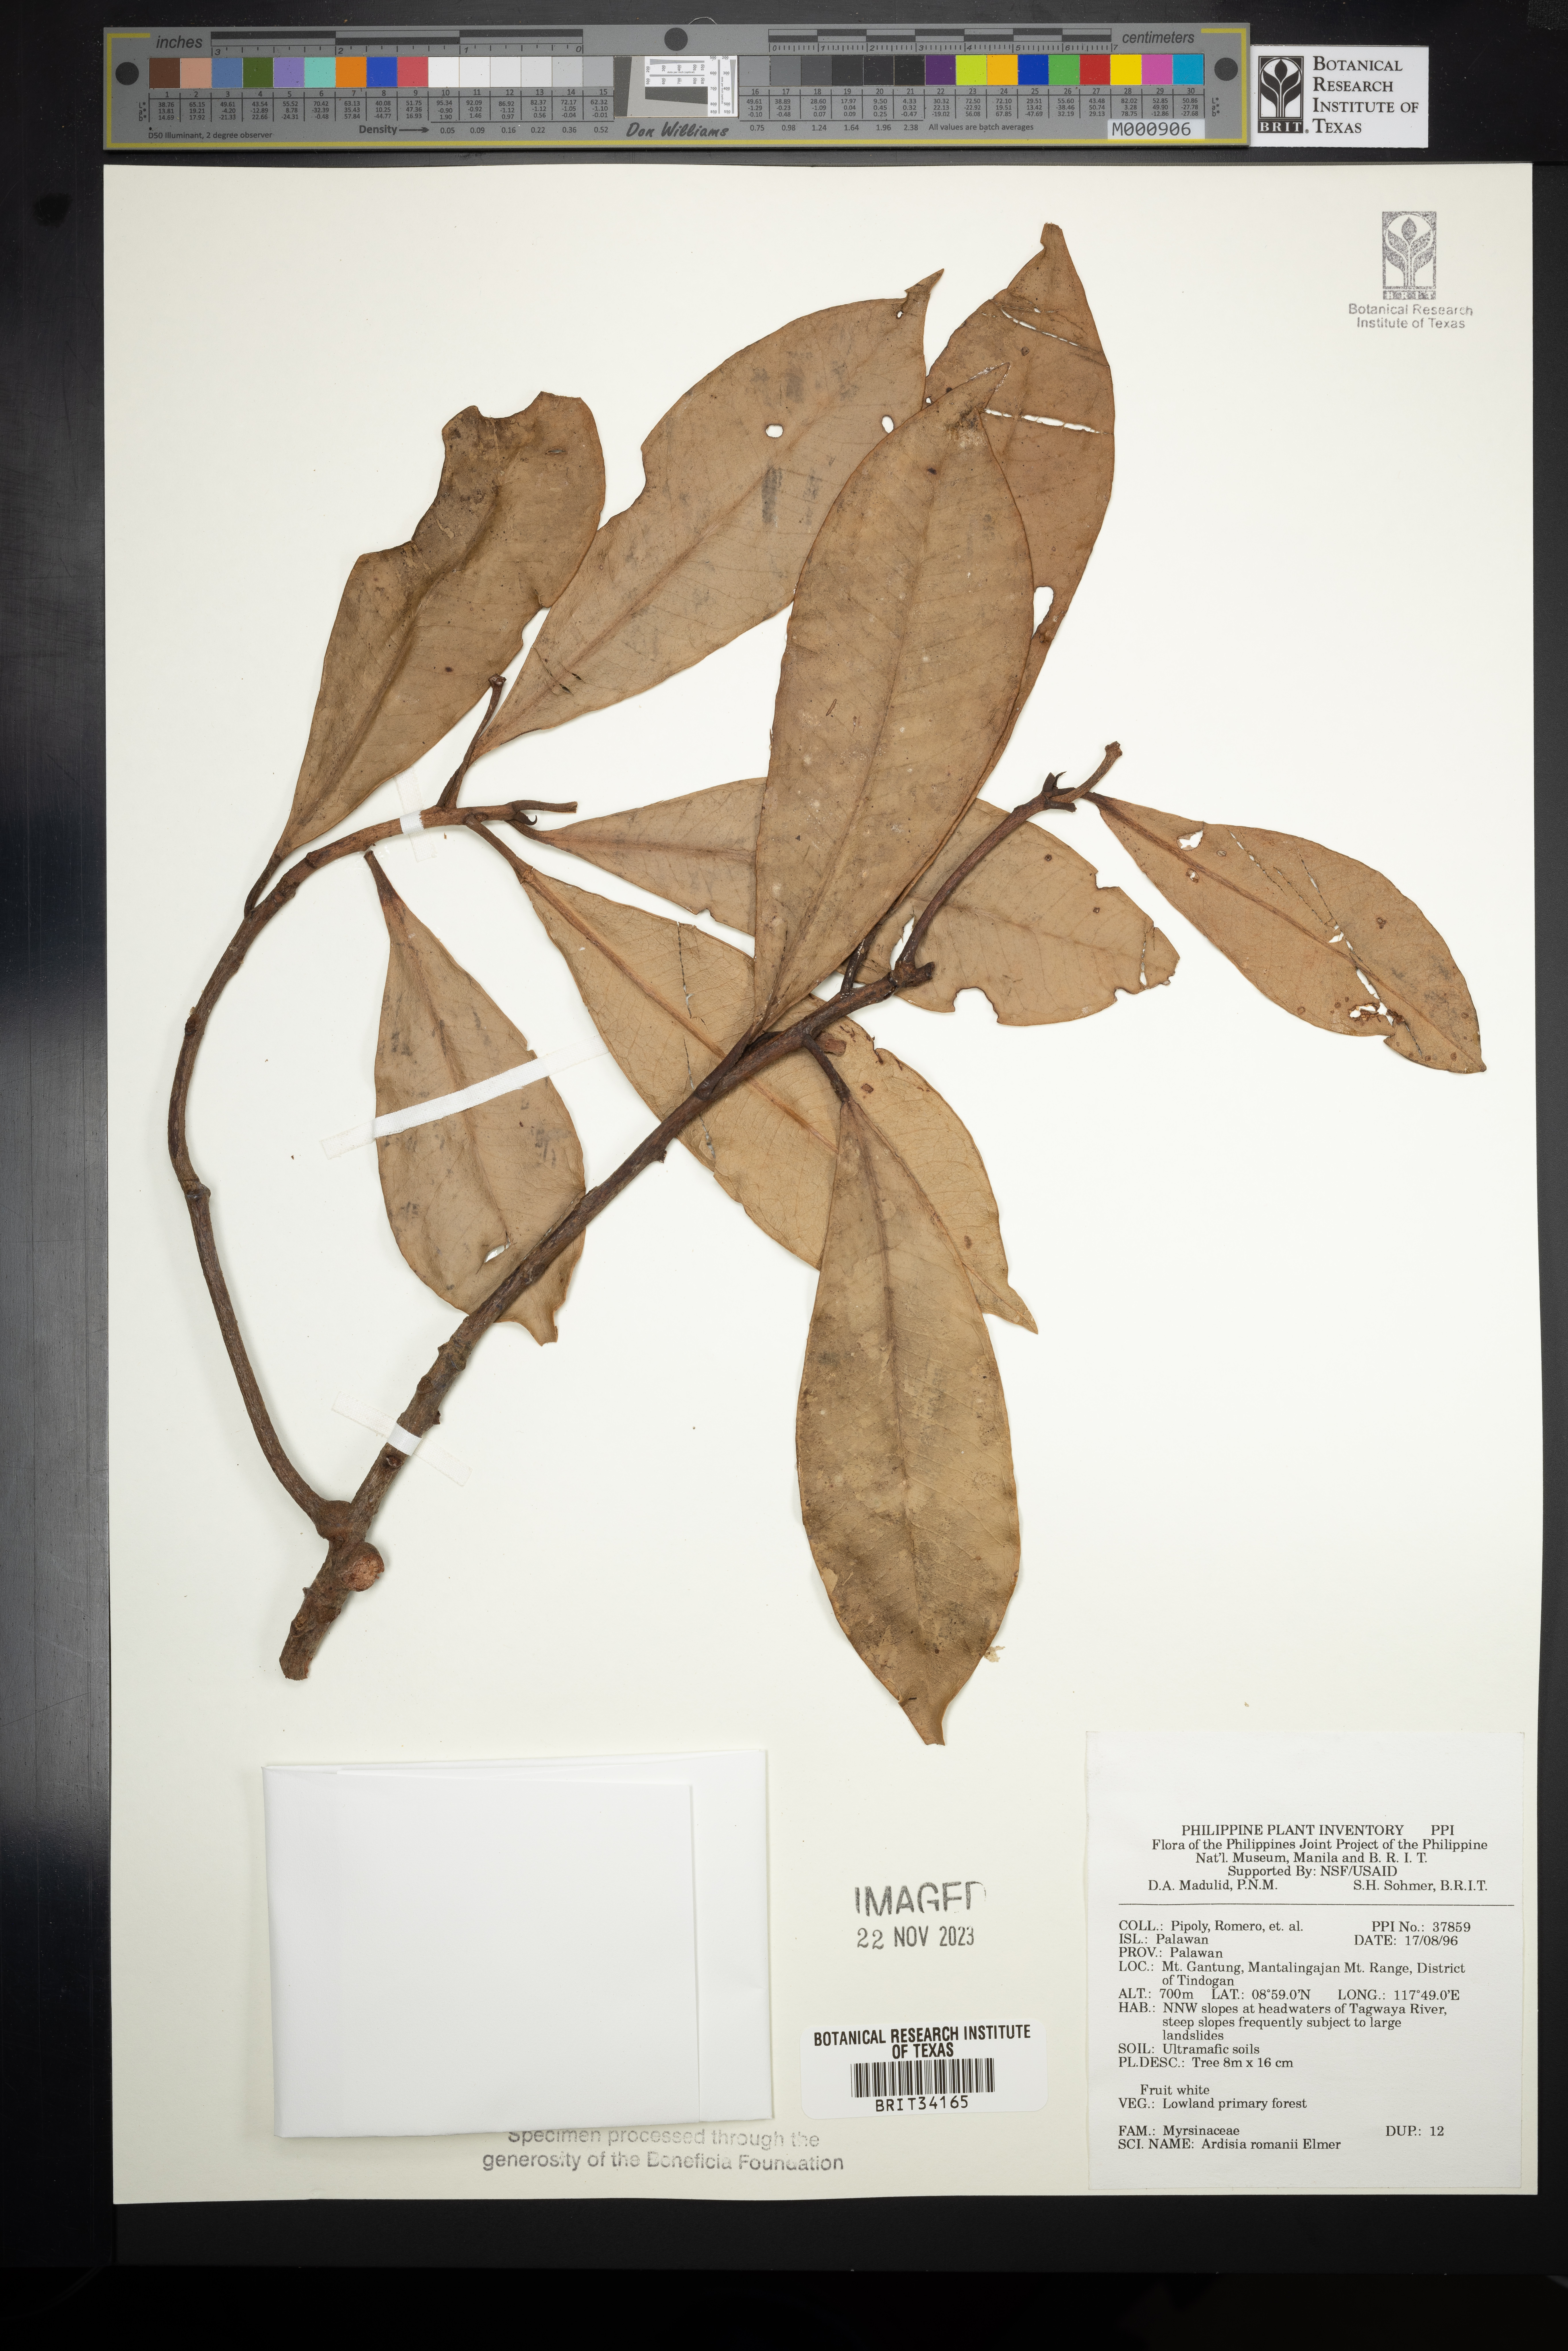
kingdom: Plantae
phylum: Tracheophyta
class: Magnoliopsida
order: Ericales
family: Primulaceae
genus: Ardisia
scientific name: Ardisia romanii
